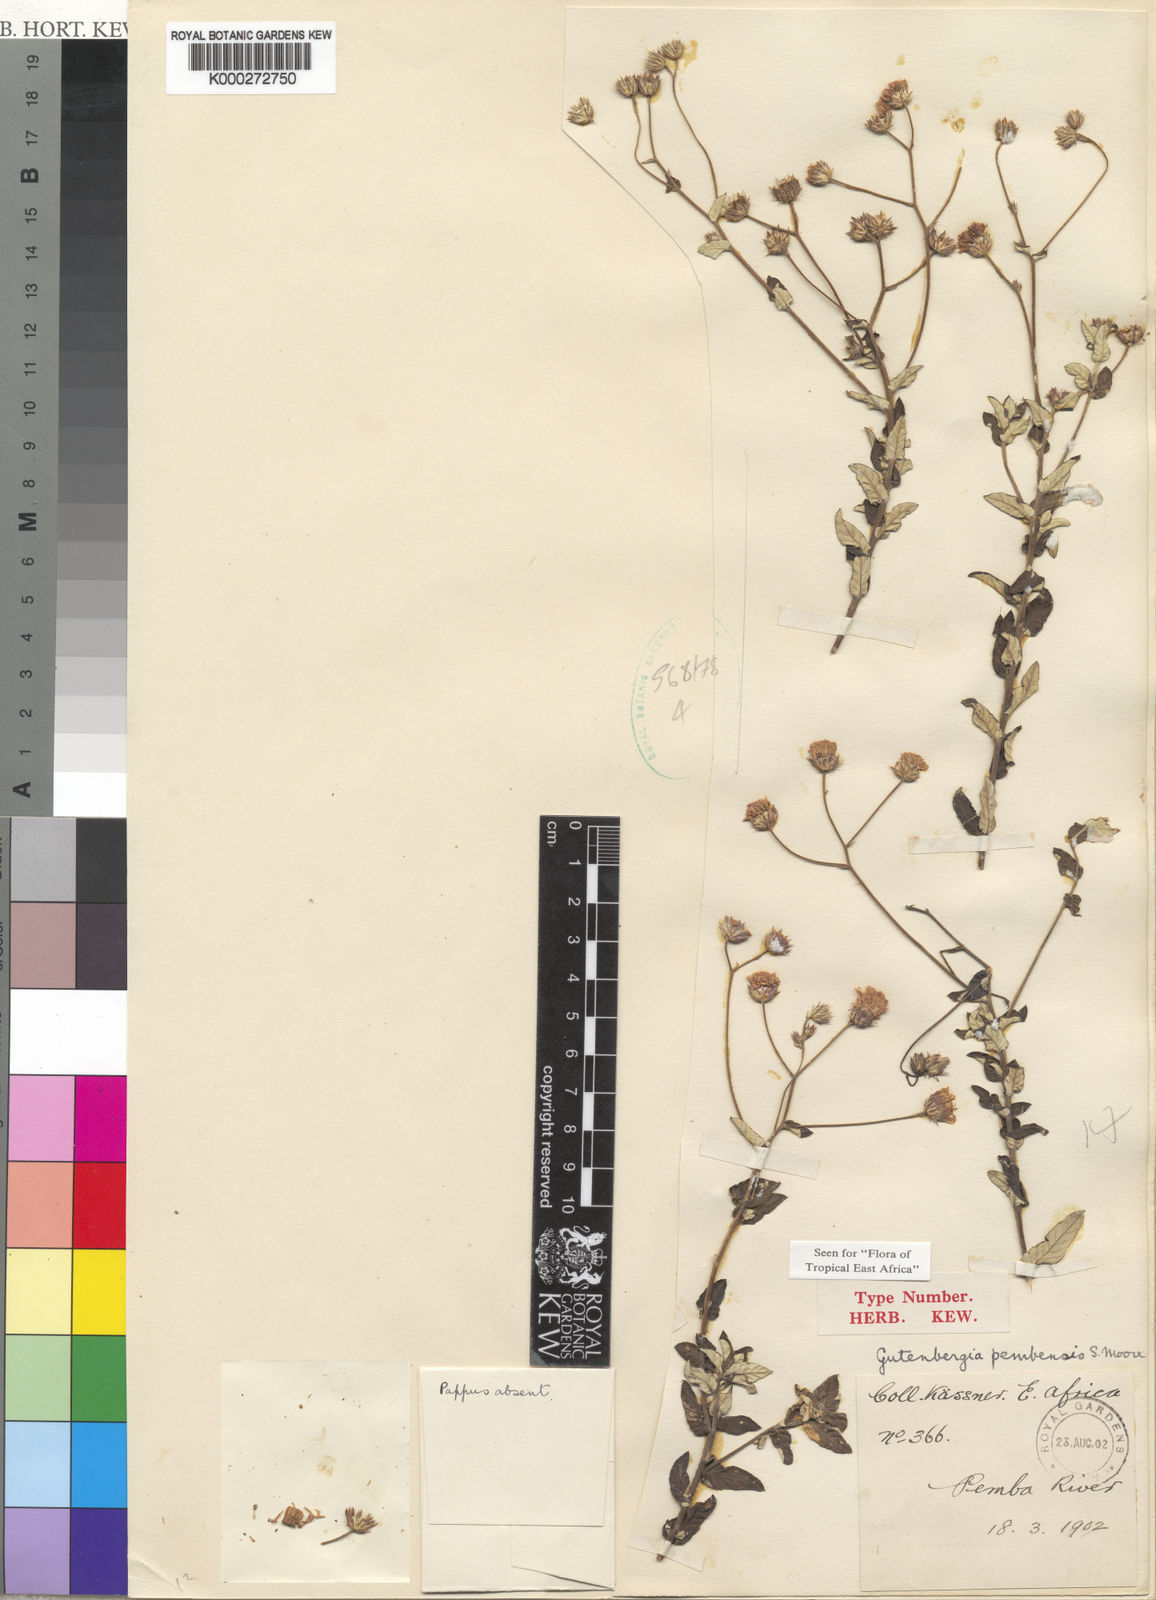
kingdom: Plantae
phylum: Tracheophyta
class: Magnoliopsida
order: Asterales
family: Asteraceae
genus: Gutenbergia
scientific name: Gutenbergia pembensis
